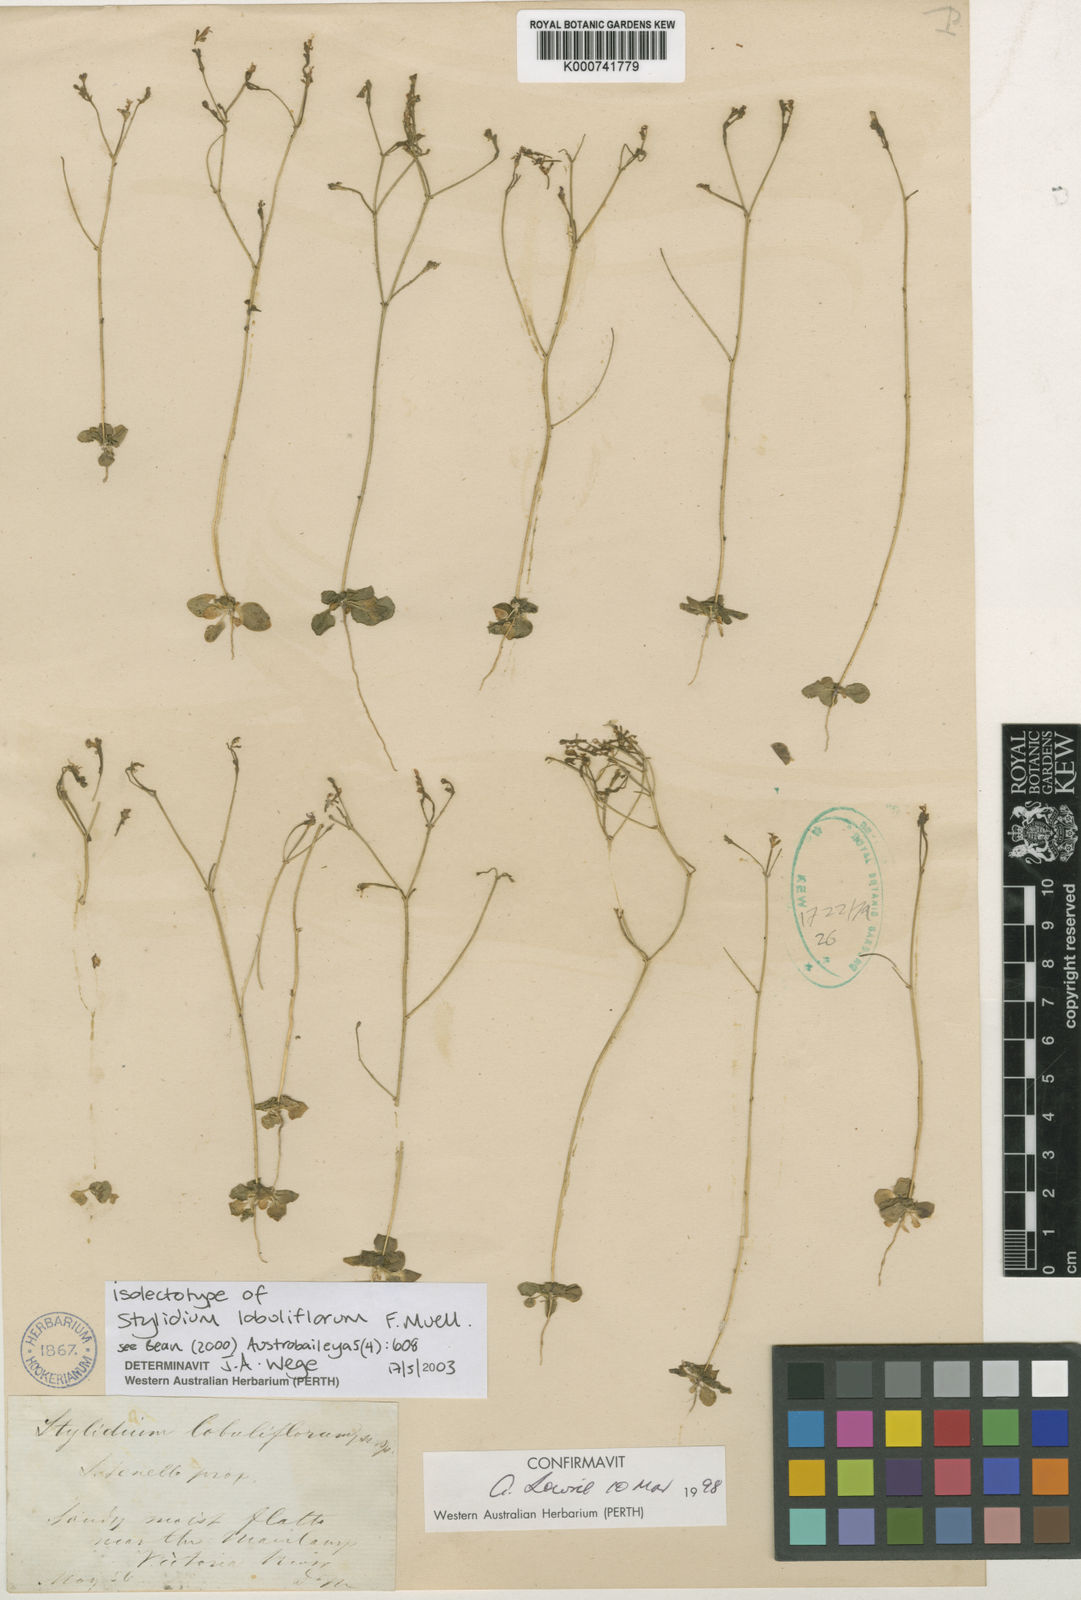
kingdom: Plantae
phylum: Tracheophyta
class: Magnoliopsida
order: Asterales
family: Stylidiaceae
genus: Stylidium
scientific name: Stylidium lobuliflorum
